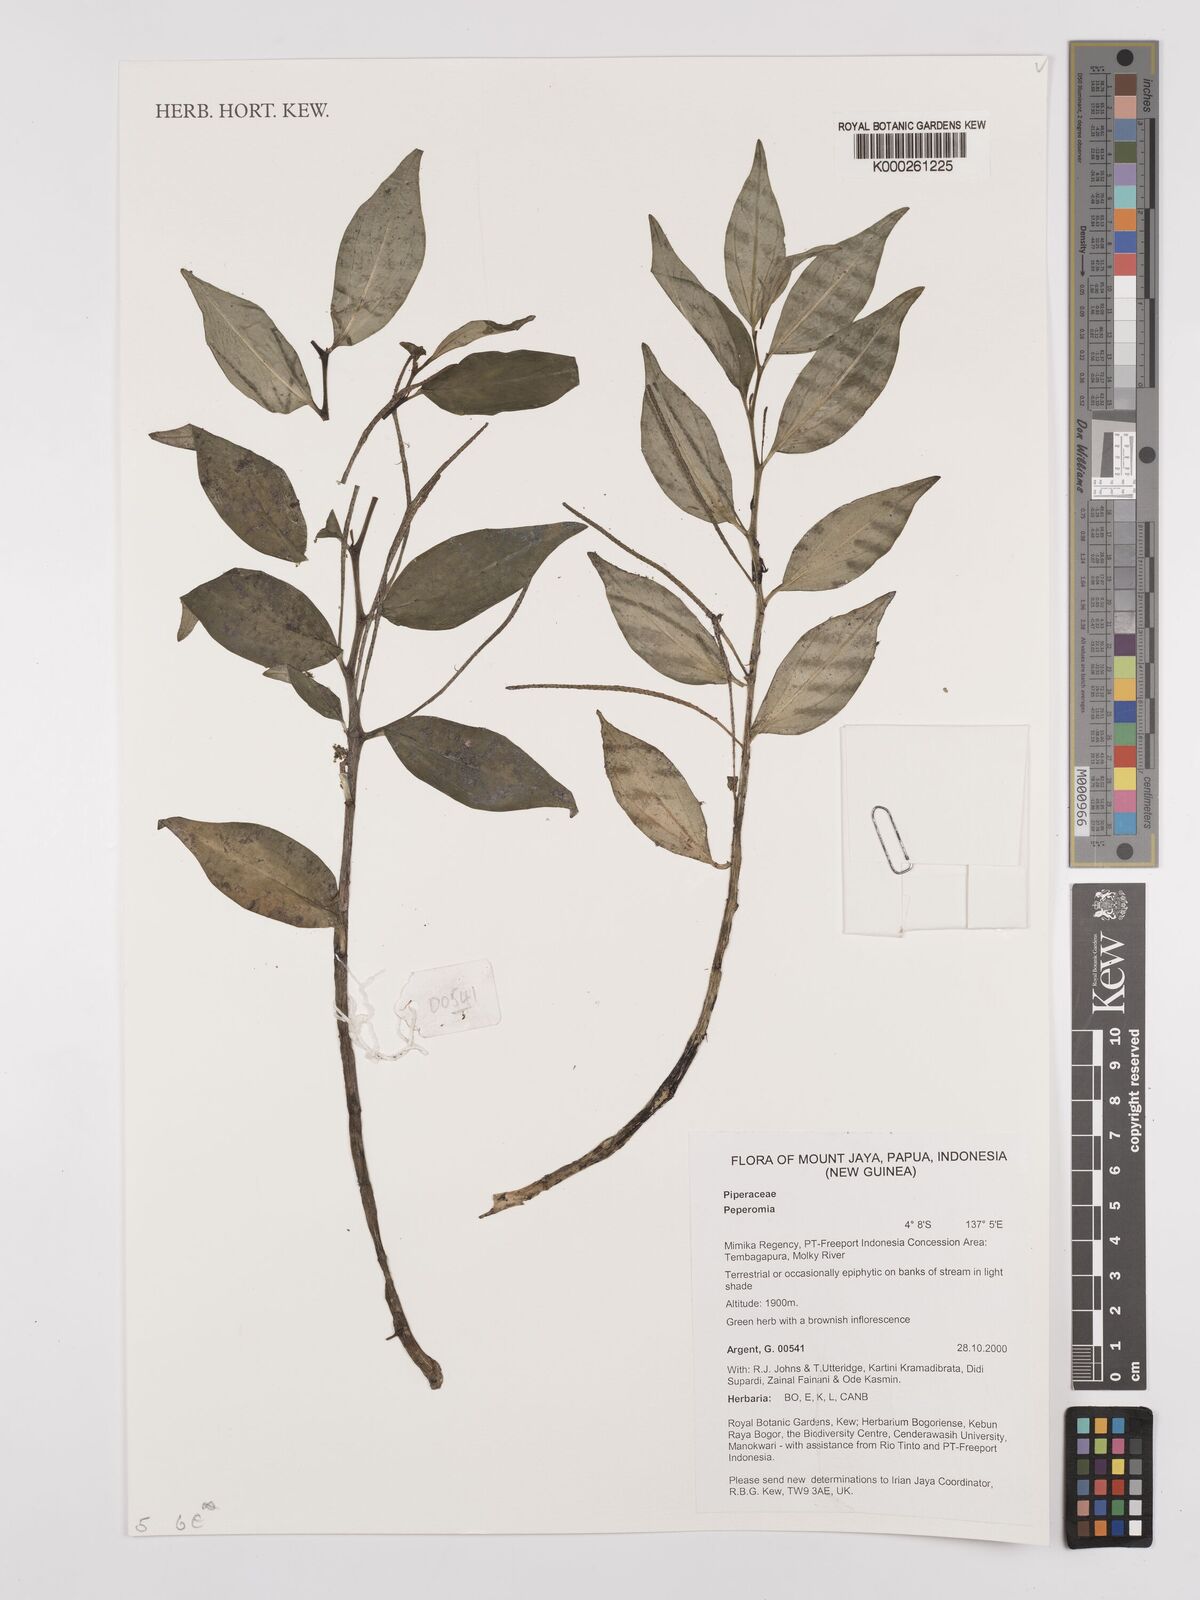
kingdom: Plantae
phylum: Tracheophyta
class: Magnoliopsida
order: Piperales
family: Piperaceae
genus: Peperomia
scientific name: Peperomia
